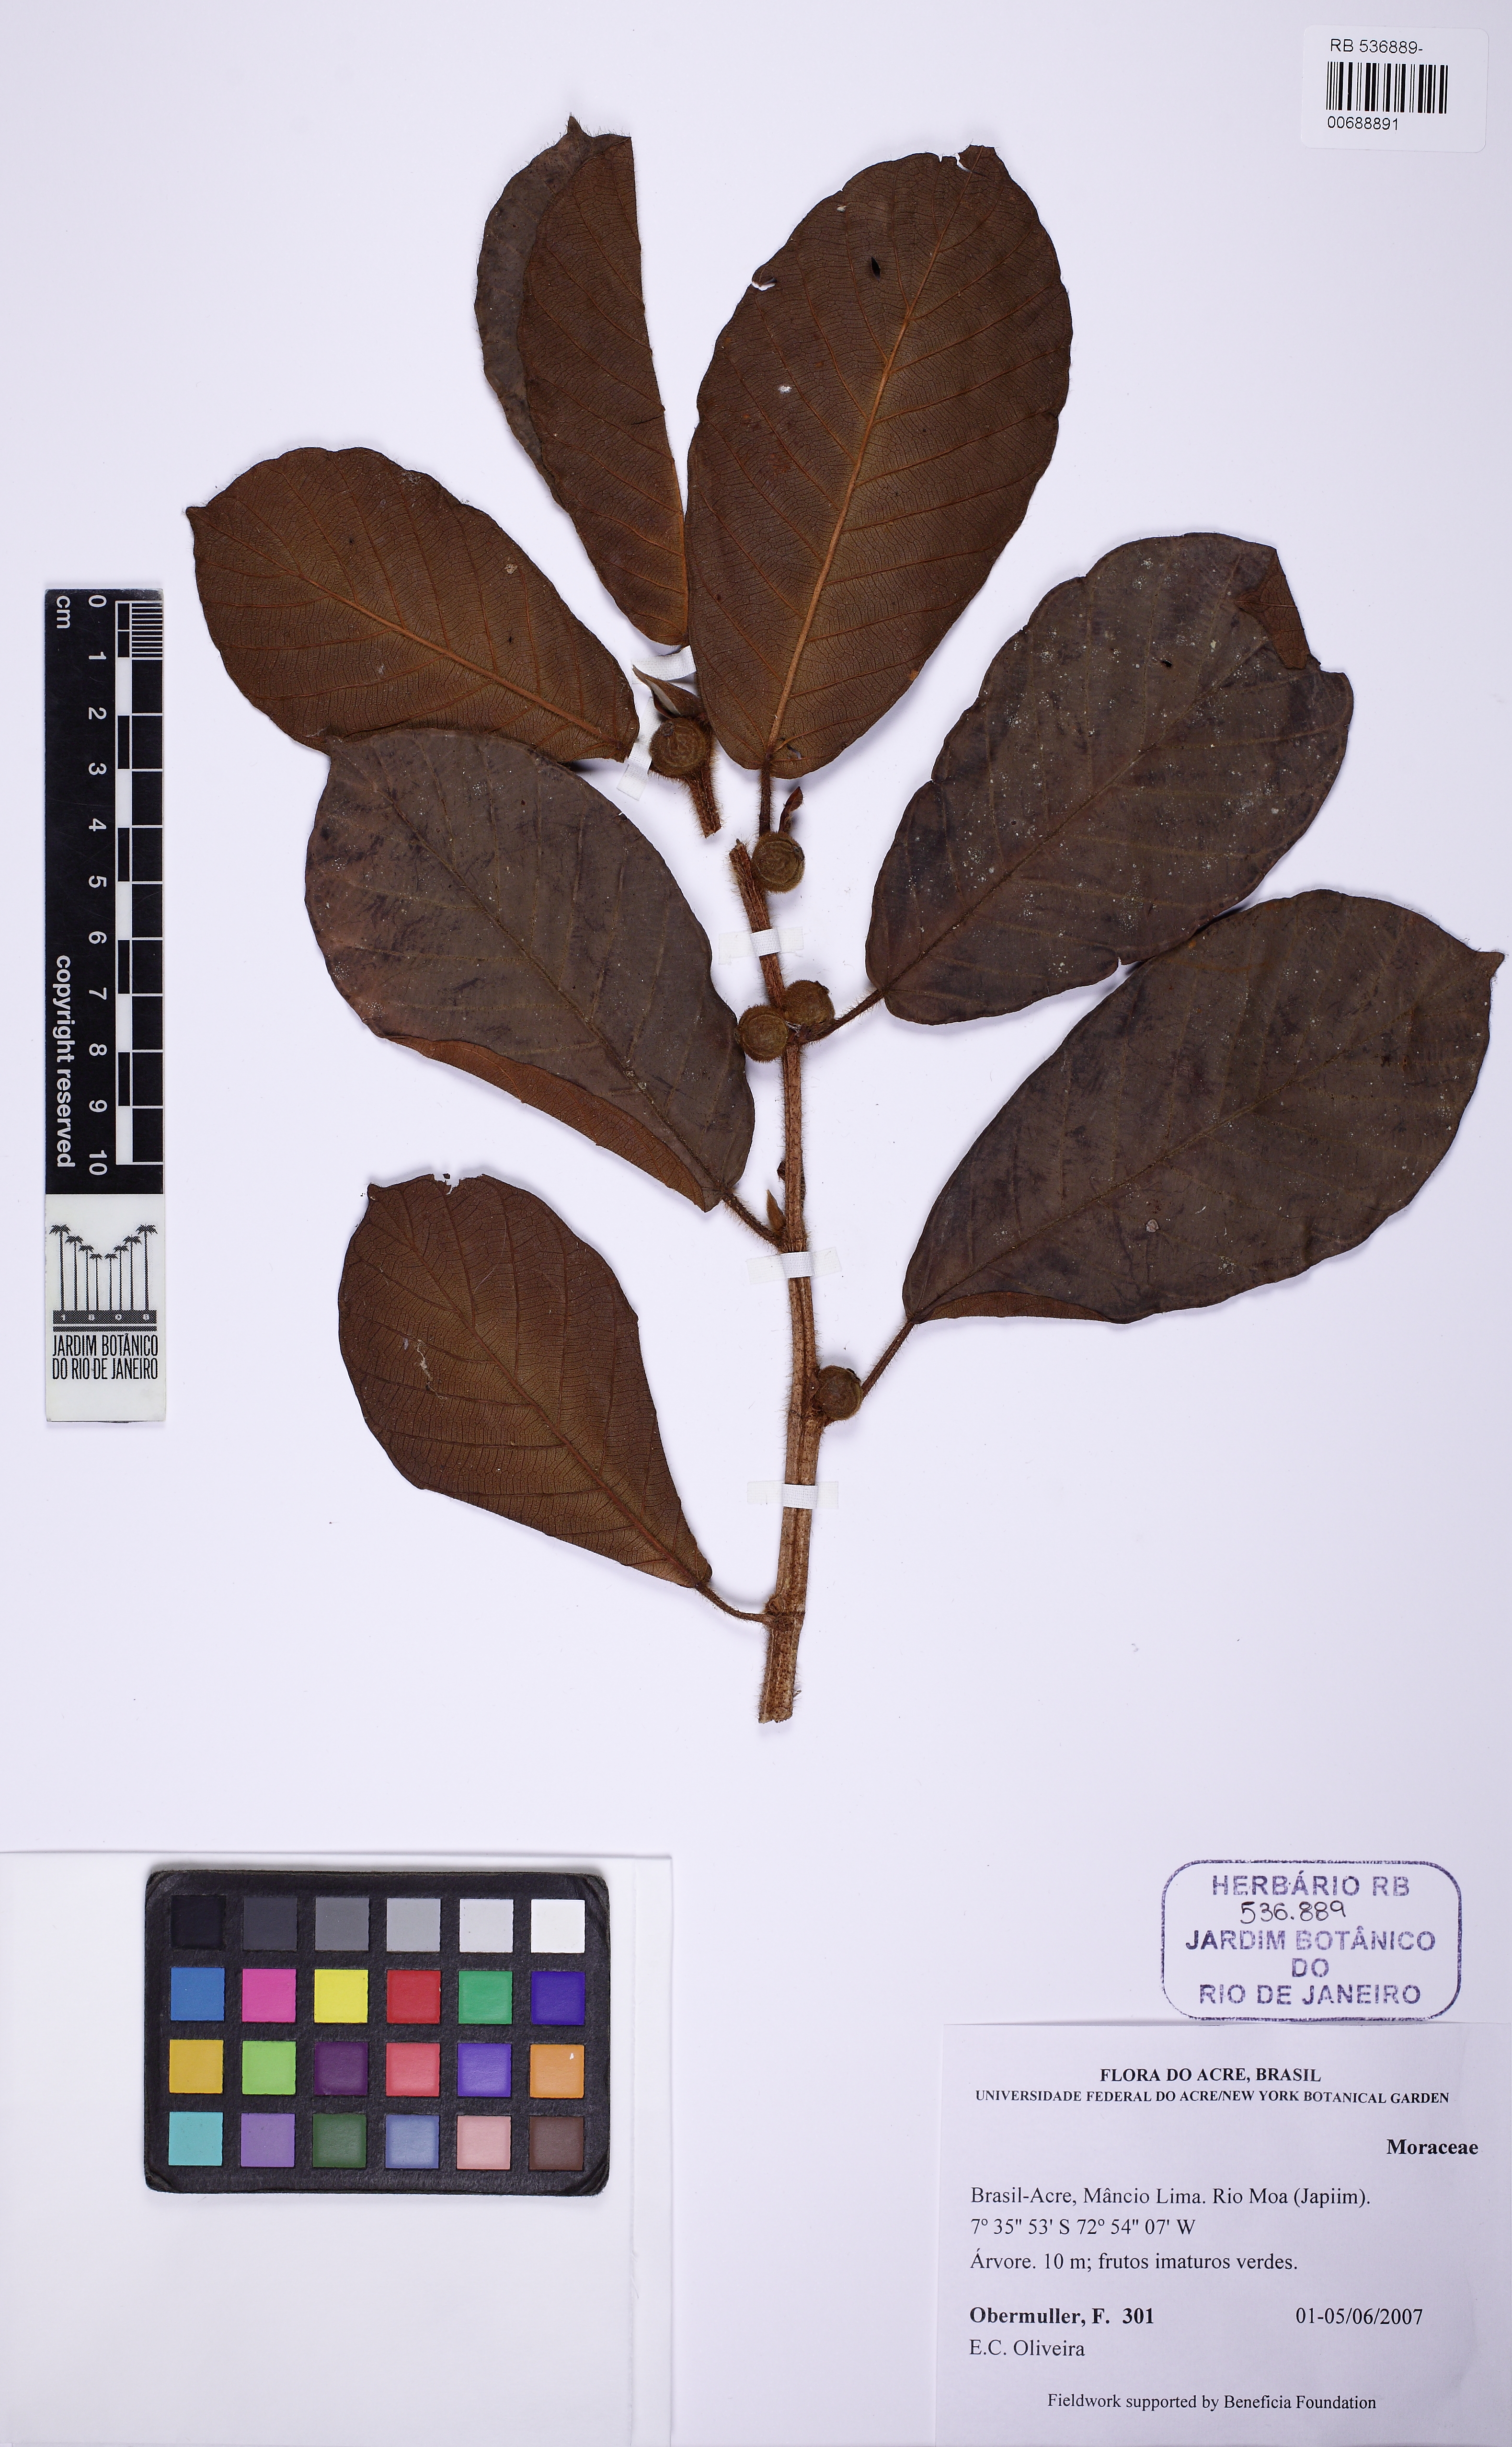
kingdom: Plantae
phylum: Tracheophyta
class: Magnoliopsida
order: Rosales
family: Moraceae
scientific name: Moraceae
